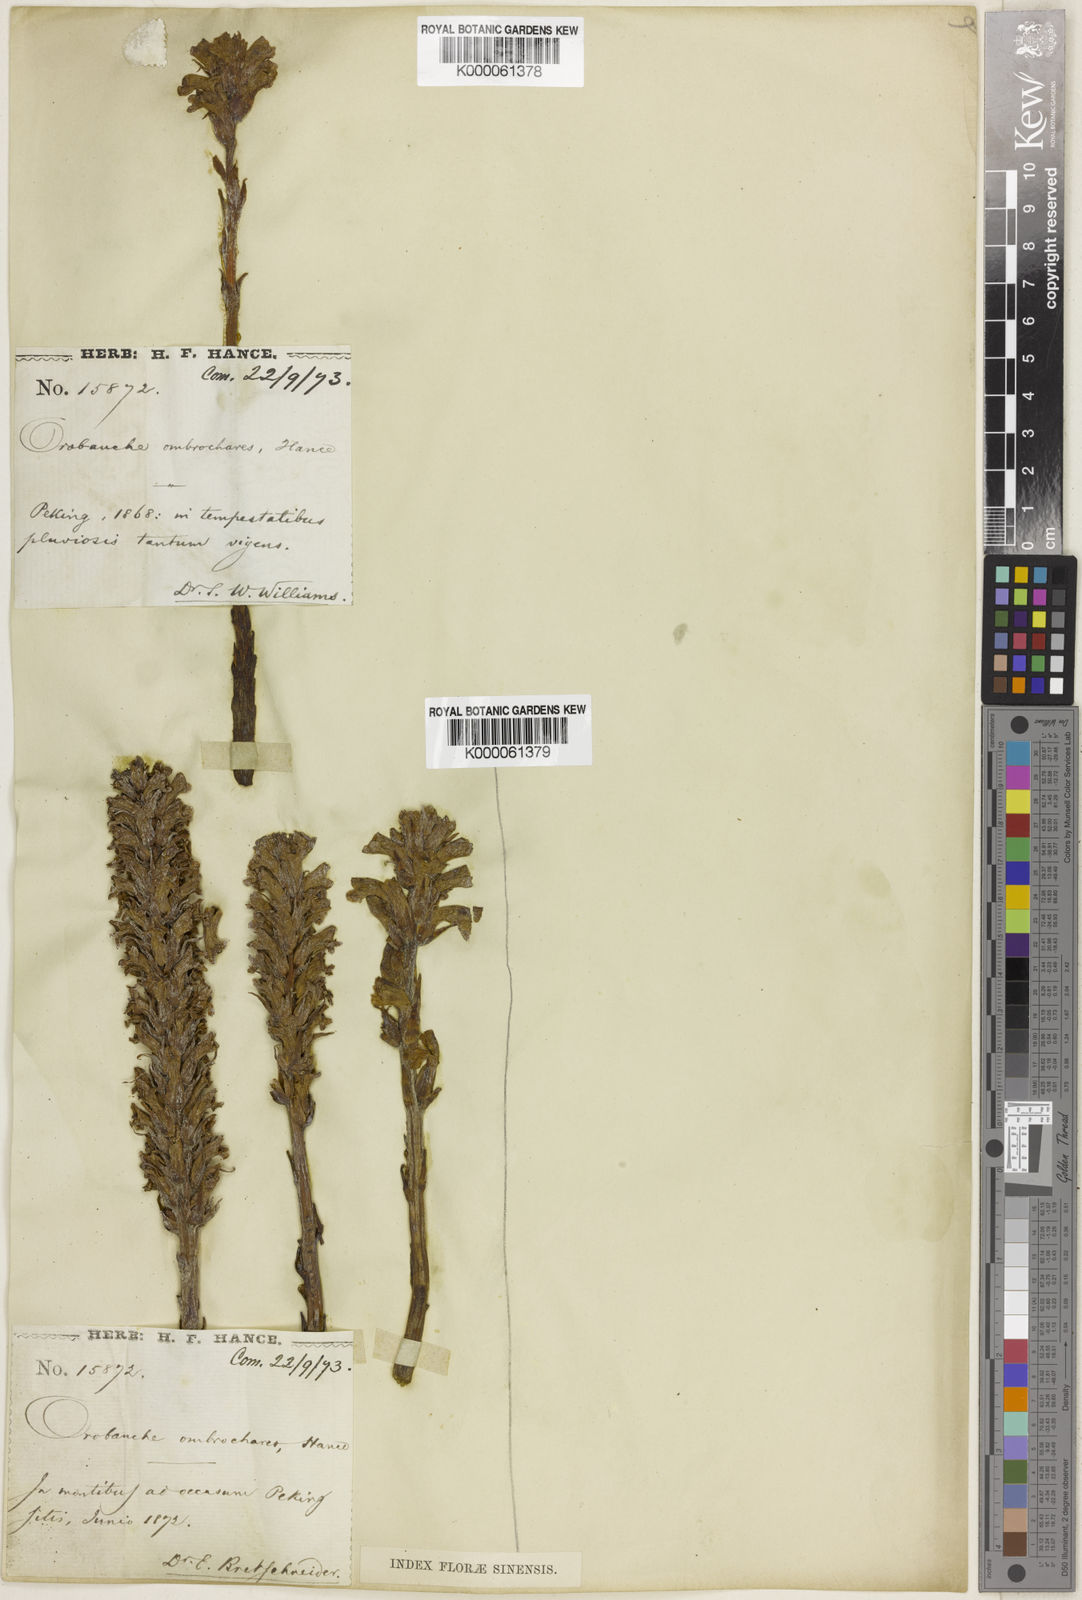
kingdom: Plantae
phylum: Tracheophyta
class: Magnoliopsida
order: Lamiales
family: Orobanchaceae
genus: Orobanche
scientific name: Orobanche ombrochares
